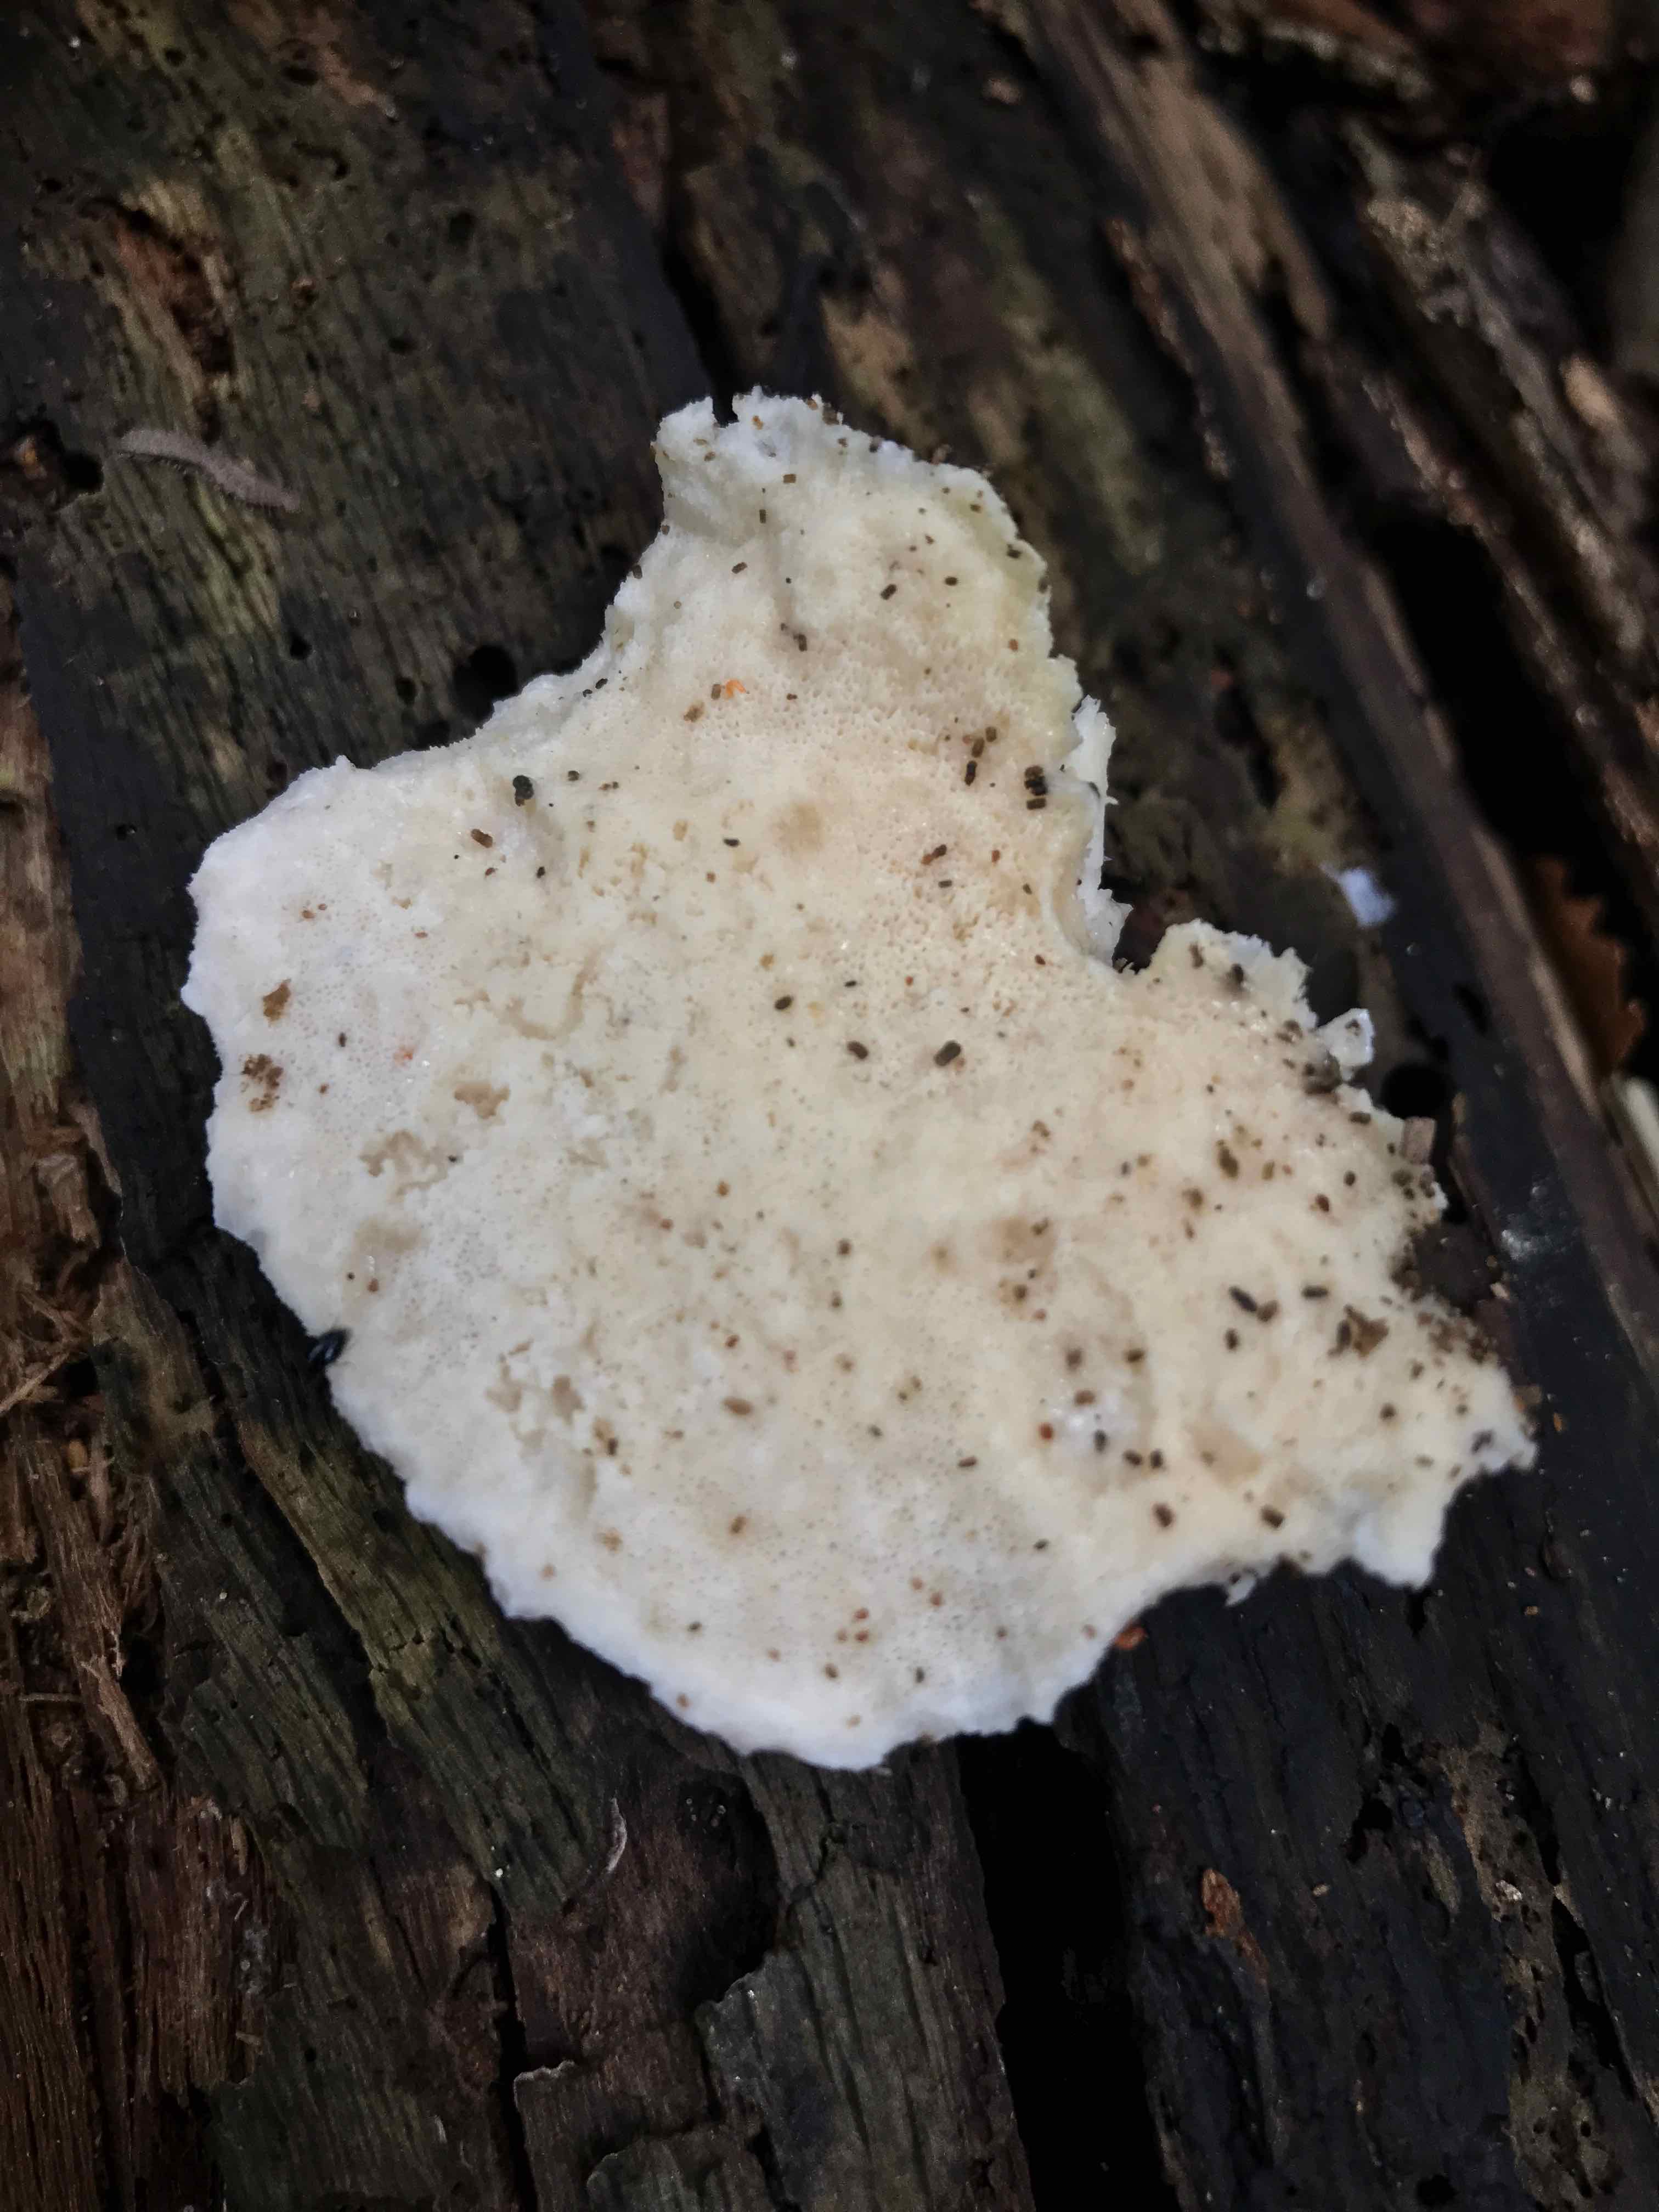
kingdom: Fungi
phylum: Basidiomycota
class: Agaricomycetes
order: Polyporales
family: Incrustoporiaceae
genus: Tyromyces
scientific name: Tyromyces lacteus
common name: mælkehvid kødporesvamp
